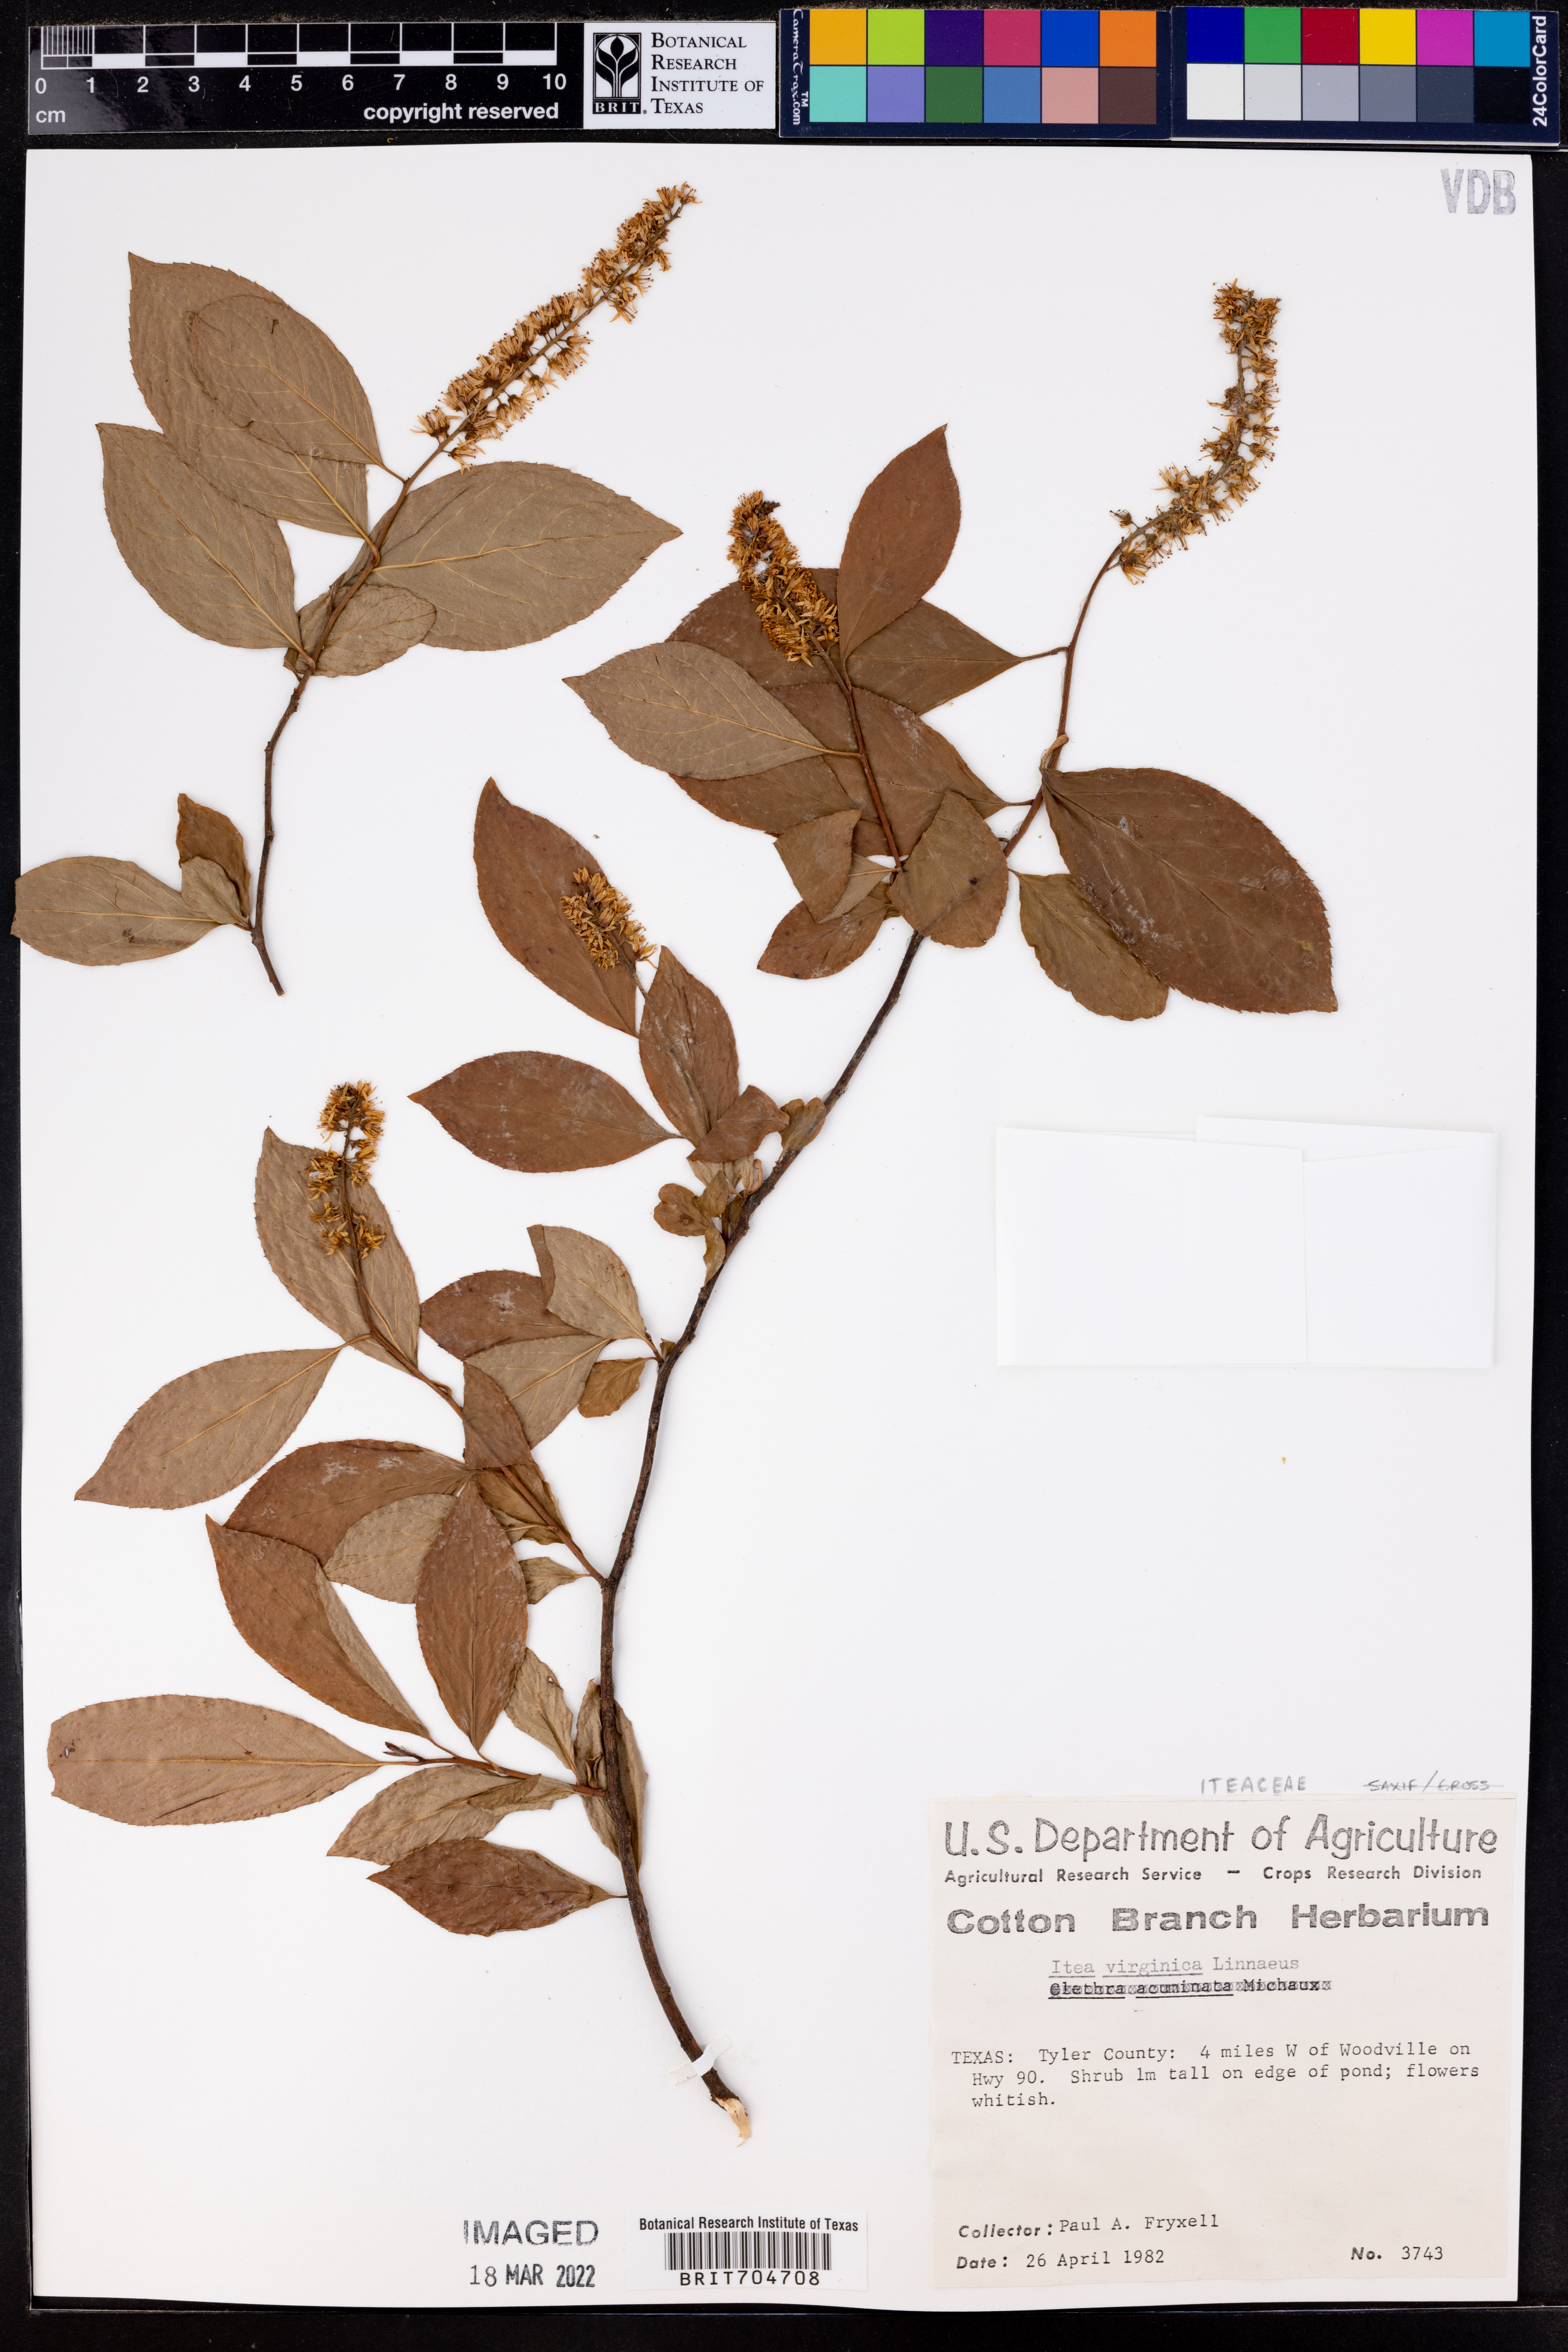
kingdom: Plantae
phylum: Tracheophyta
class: Magnoliopsida
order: Saxifragales
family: Iteaceae
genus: Itea
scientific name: Itea virginica
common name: Sweetspire
